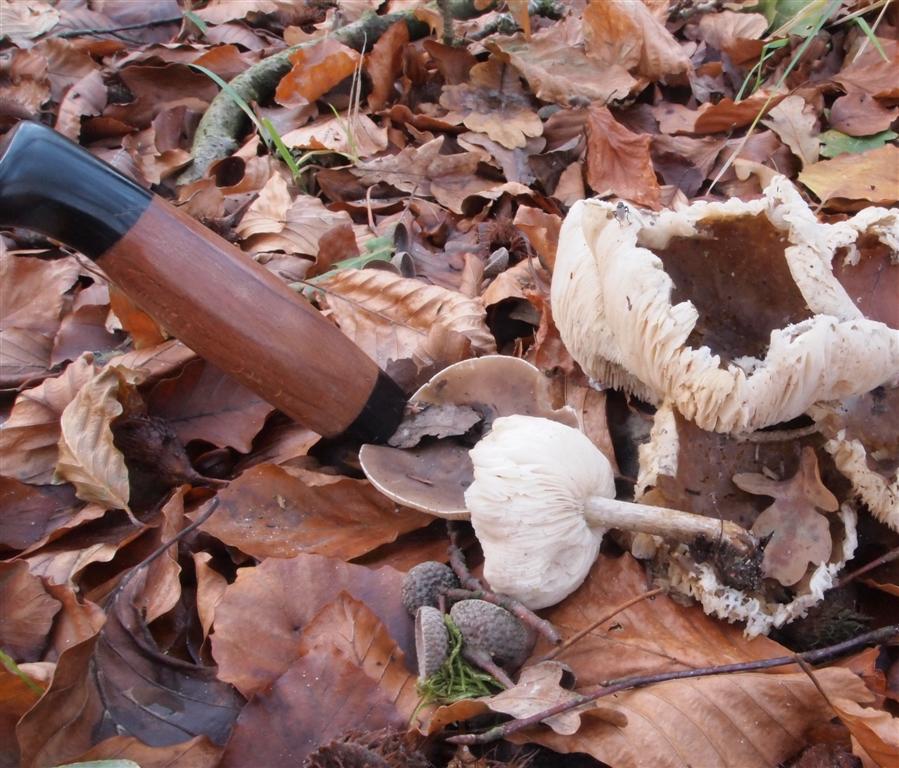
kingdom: Fungi
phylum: Basidiomycota
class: Agaricomycetes
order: Agaricales
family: Tricholomataceae
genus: Melanoleuca
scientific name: Melanoleuca polioleuca
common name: almindelig munkehat
